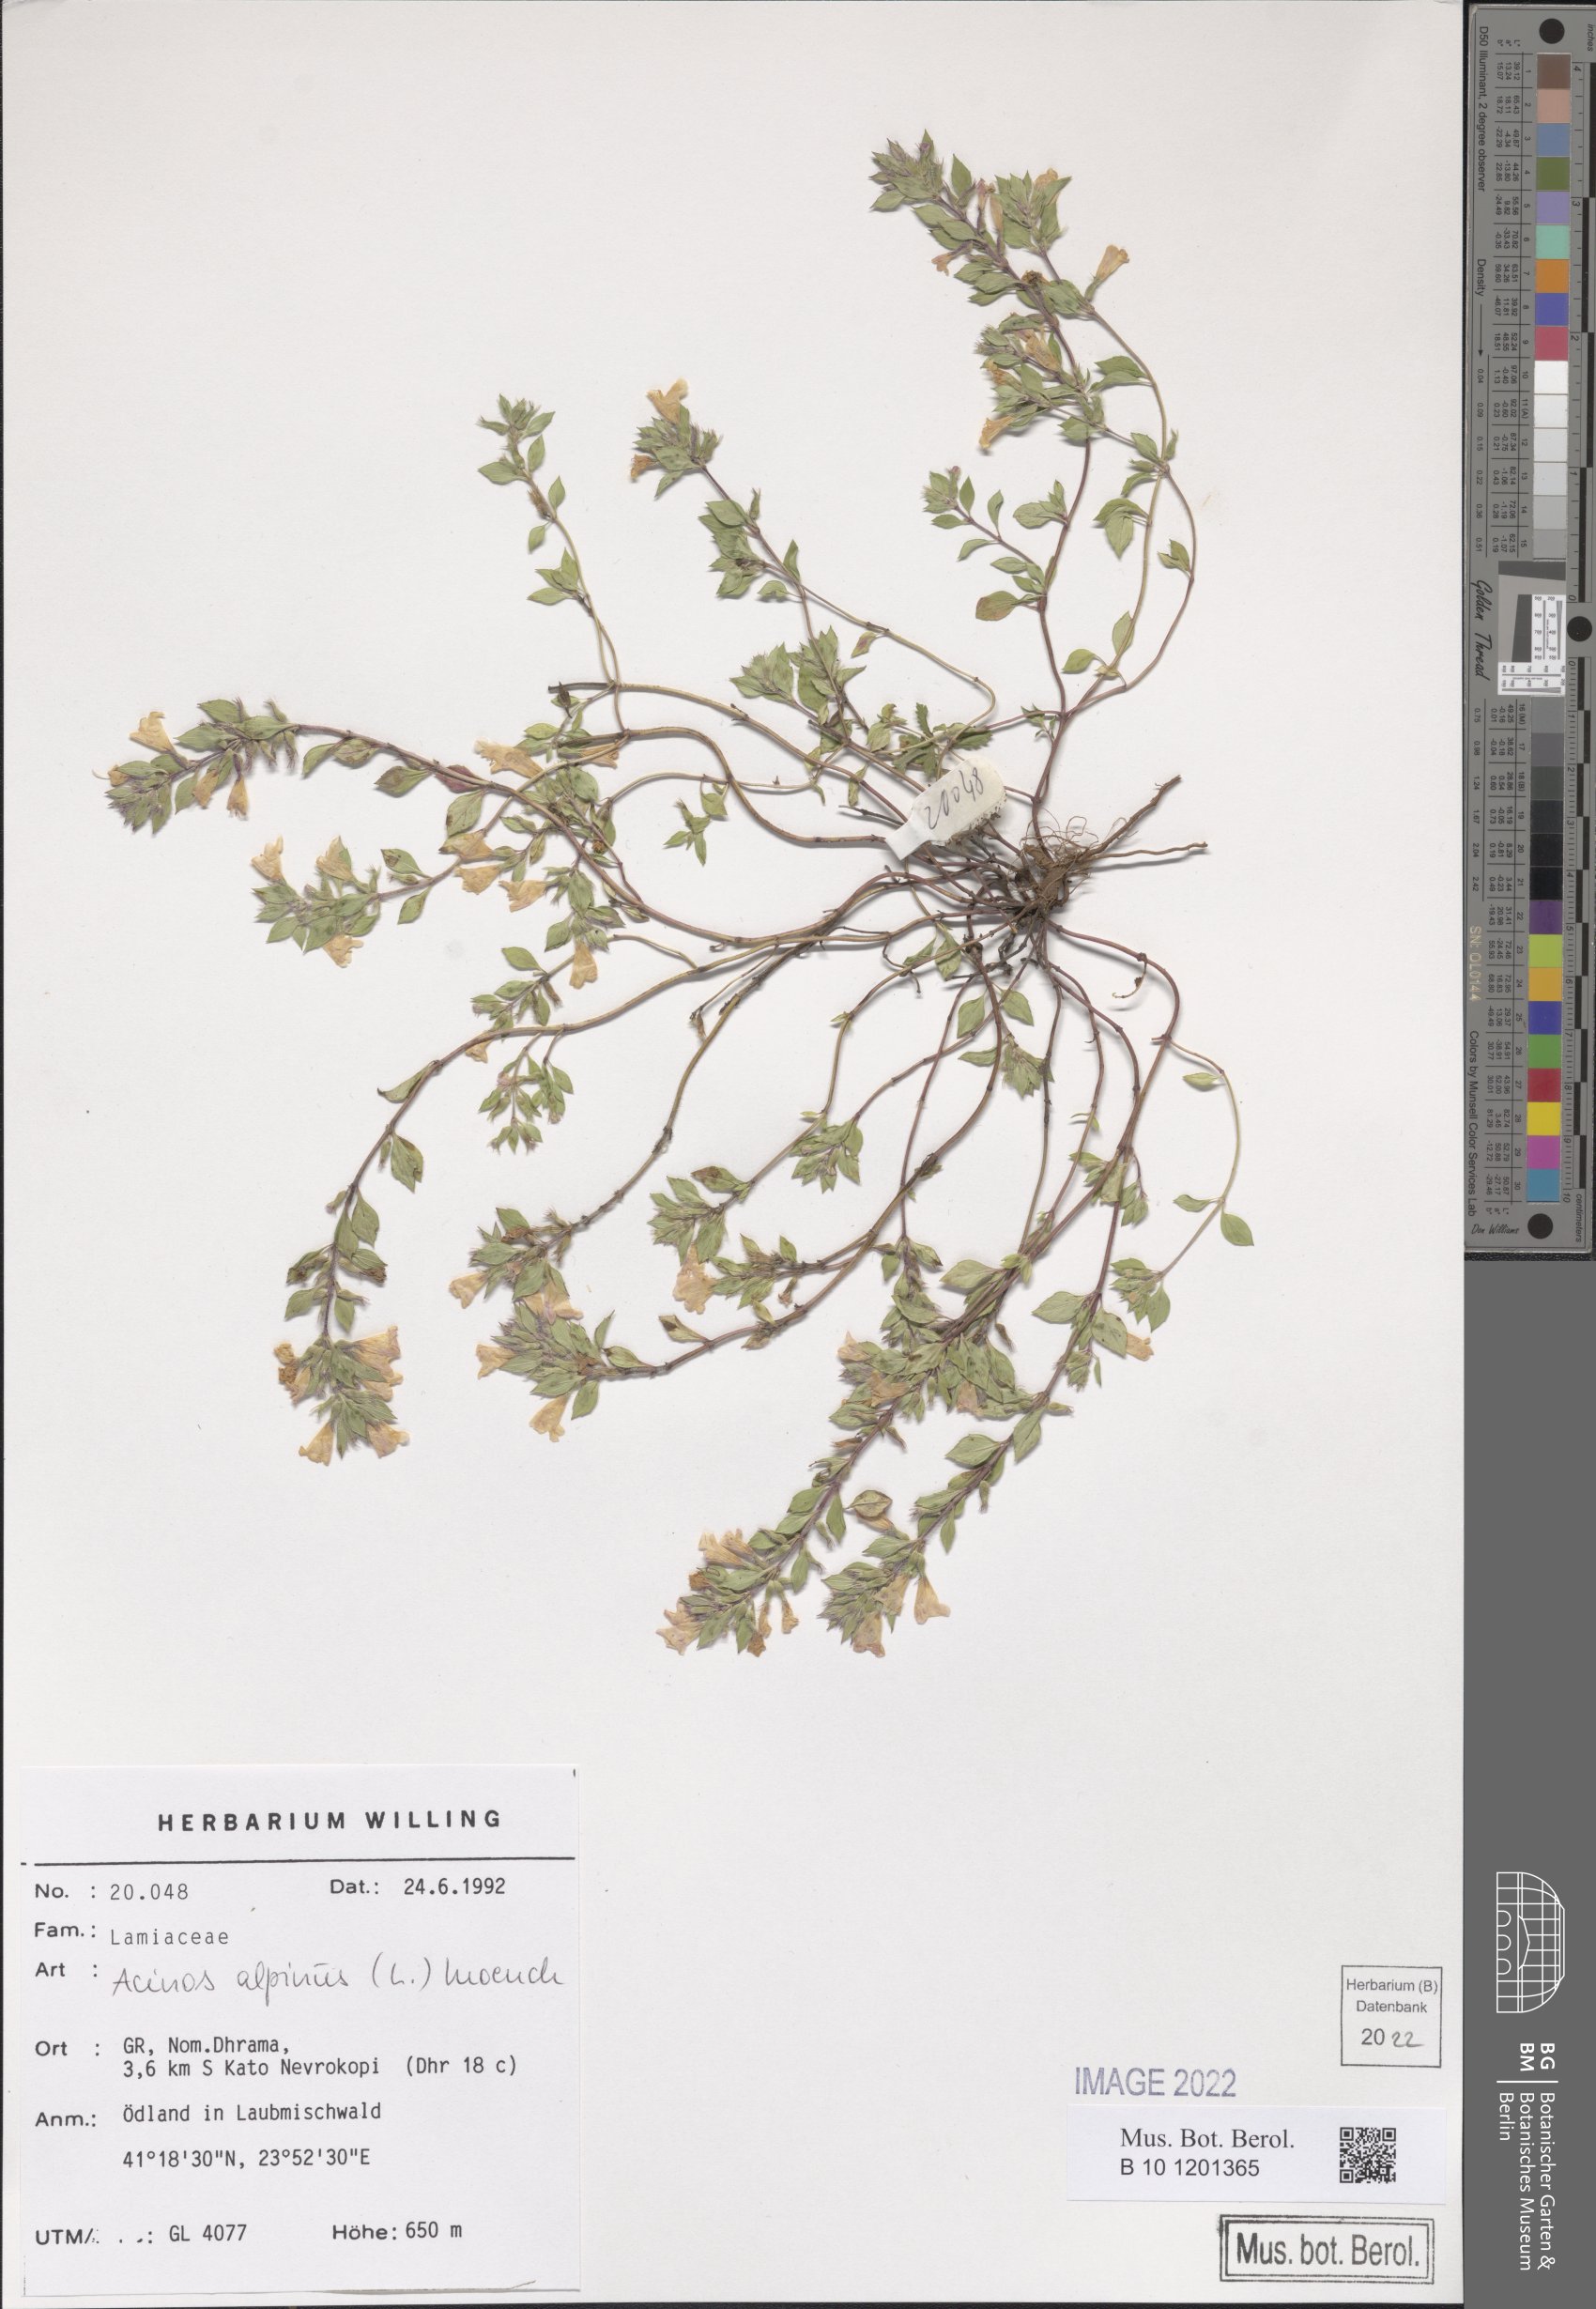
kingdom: Plantae
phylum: Tracheophyta
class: Magnoliopsida
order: Lamiales
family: Lamiaceae
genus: Clinopodium
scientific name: Clinopodium alpinum
